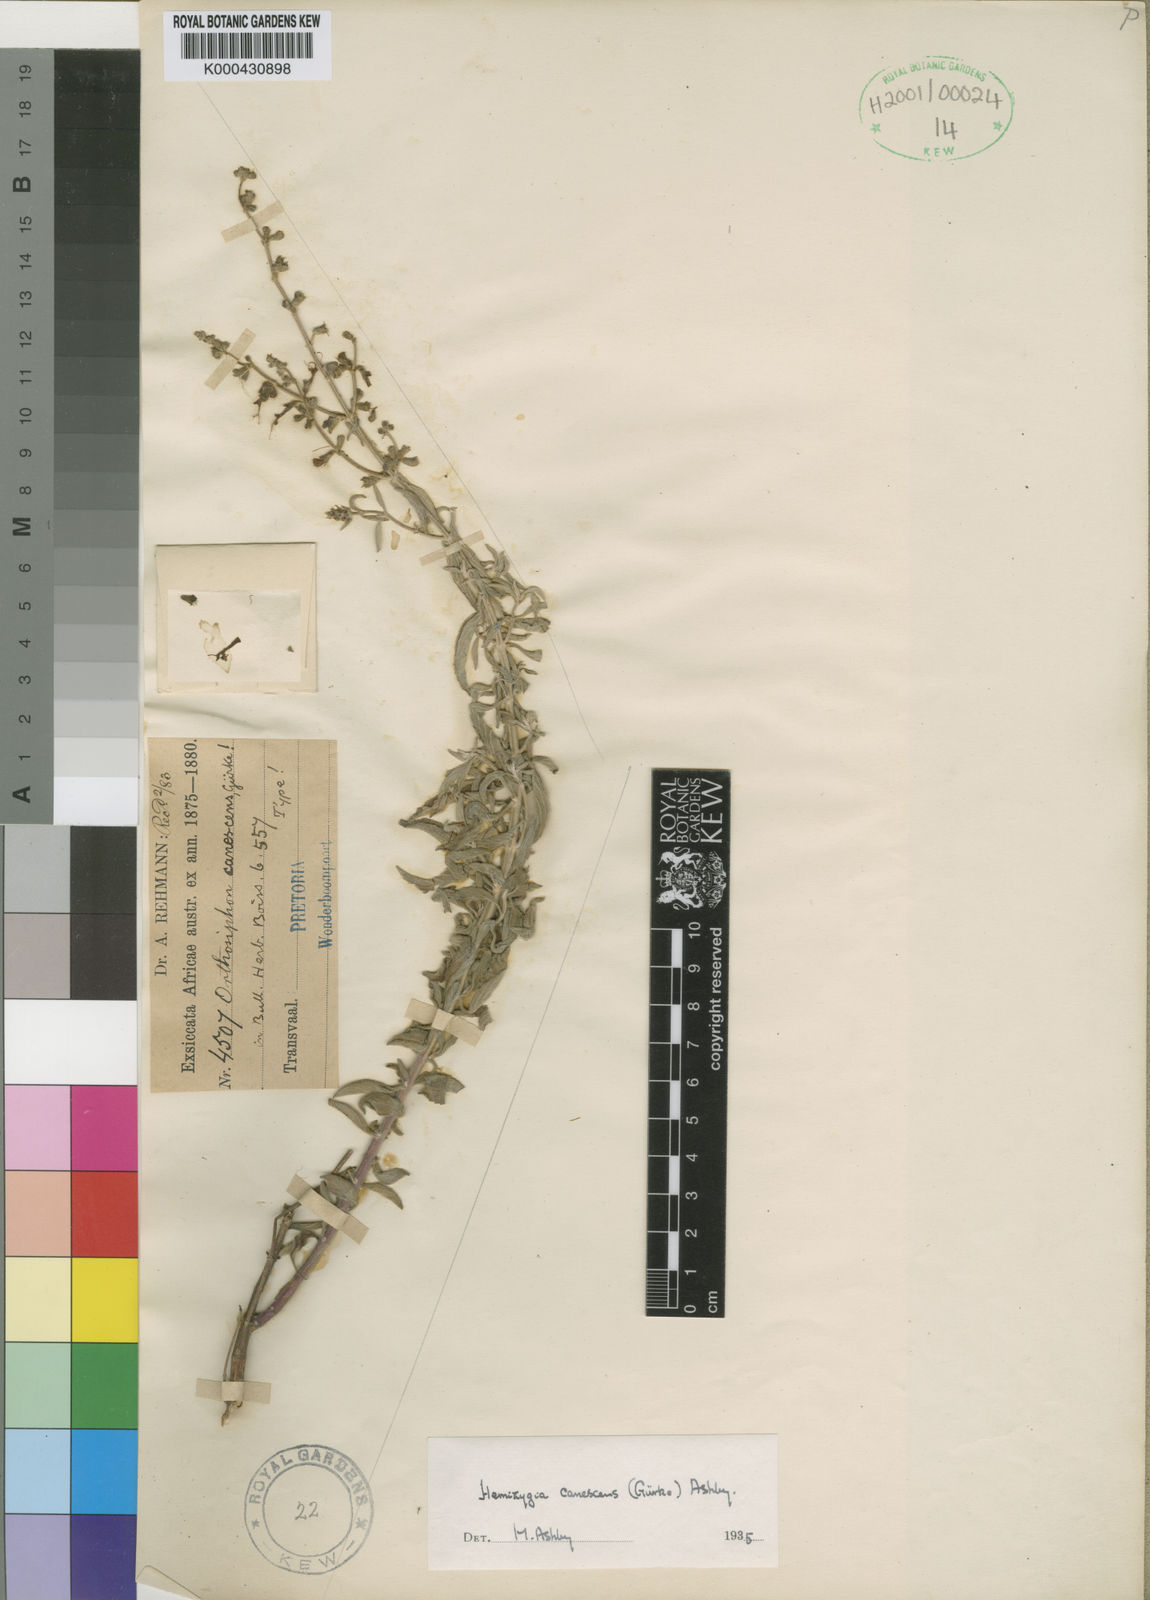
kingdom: Plantae
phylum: Tracheophyta
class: Magnoliopsida
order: Lamiales
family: Lamiaceae
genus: Syncolostemon
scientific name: Syncolostemon
